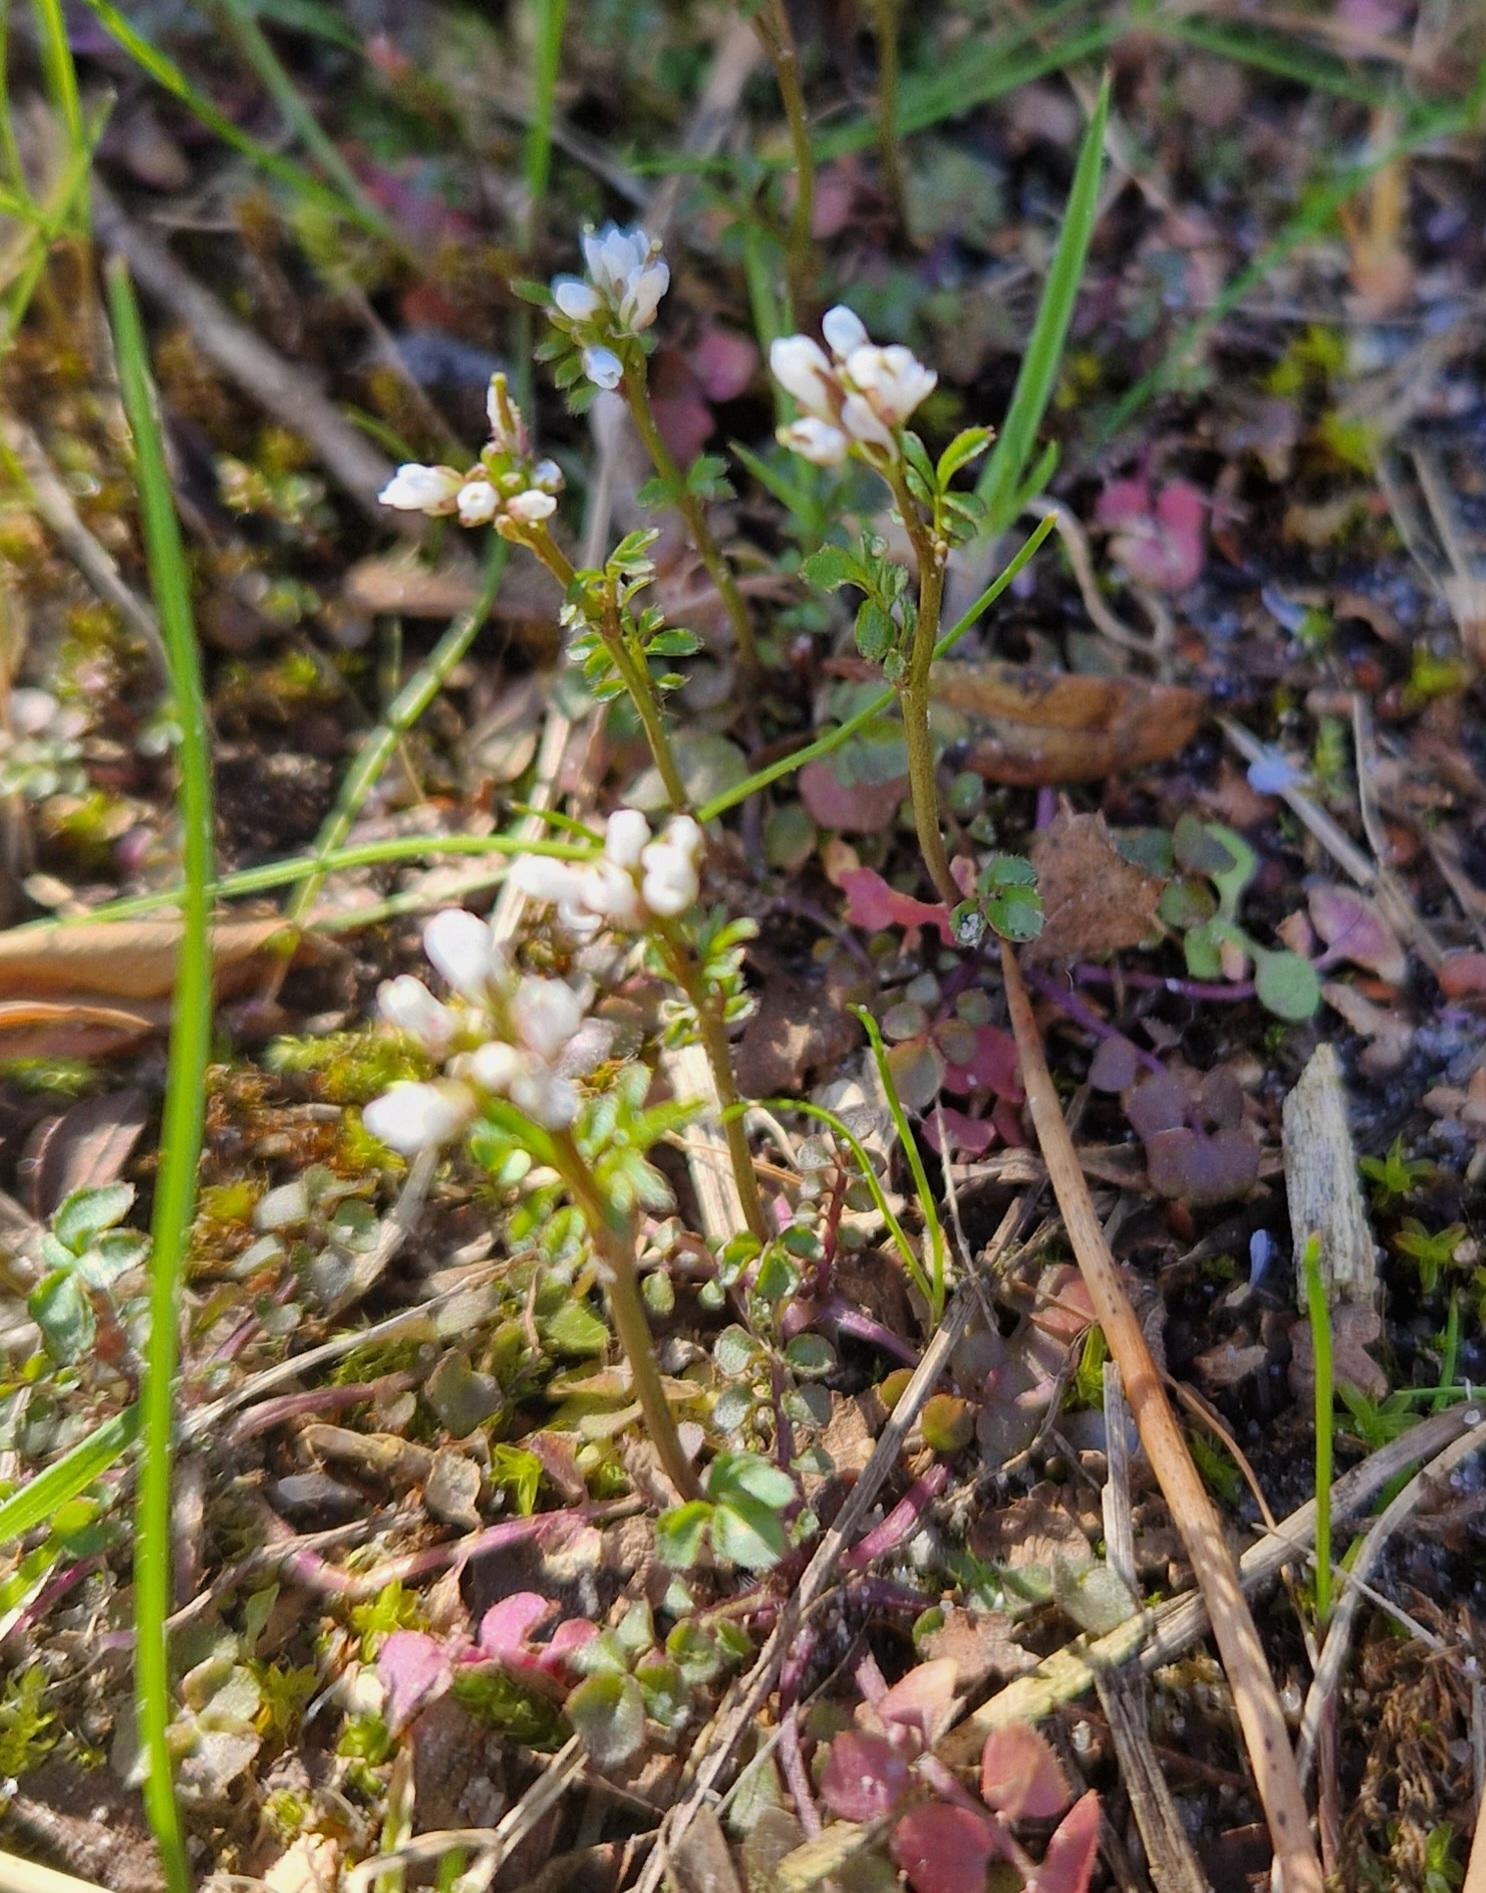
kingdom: Plantae
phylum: Tracheophyta
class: Magnoliopsida
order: Brassicales
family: Brassicaceae
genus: Cardamine
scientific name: Cardamine hirsuta
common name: Roset-springklap
